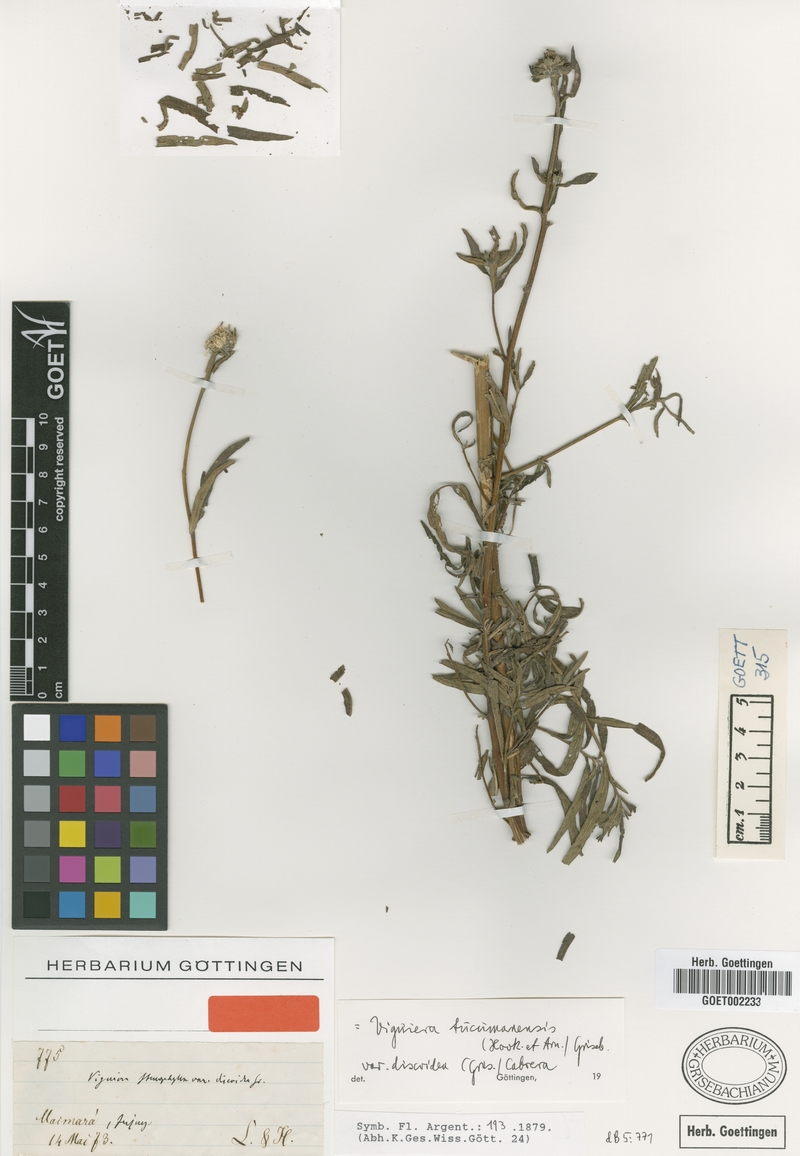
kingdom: Plantae
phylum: Tracheophyta
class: Magnoliopsida
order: Asterales
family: Asteraceae
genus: Aldama
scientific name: Aldama tucumanensis
